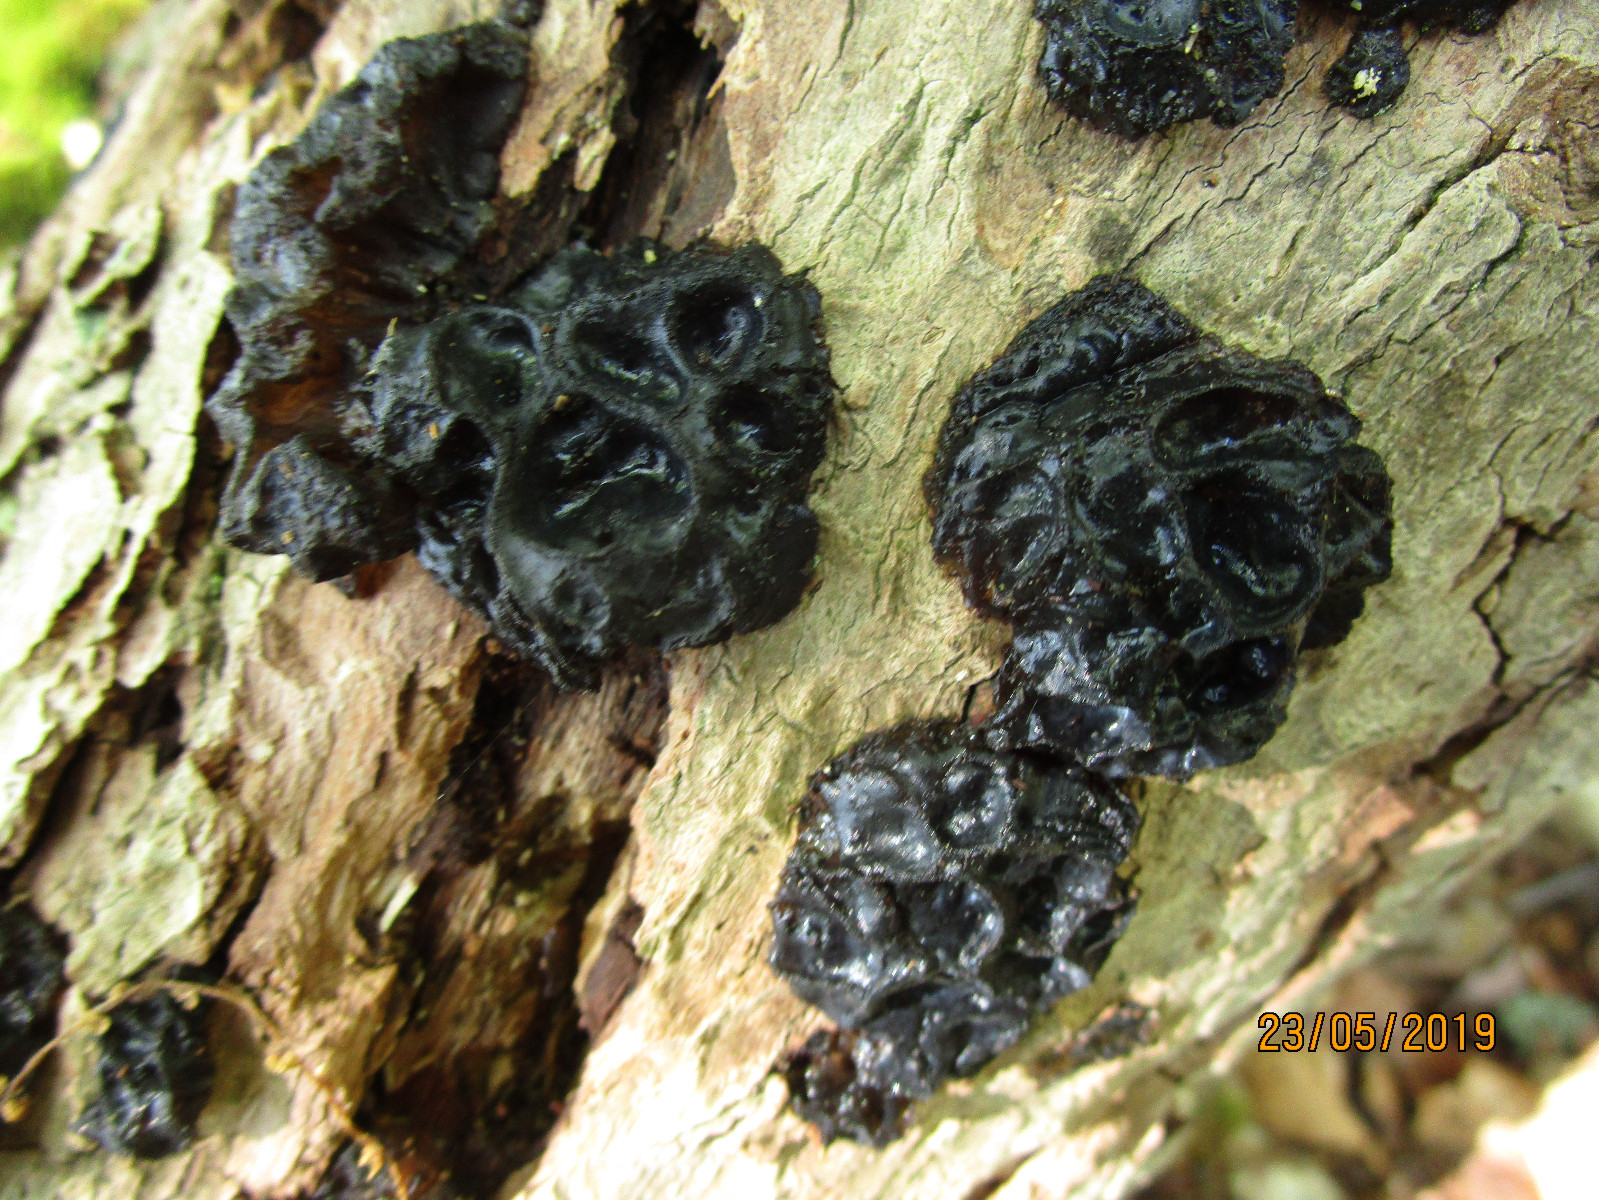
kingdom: Fungi
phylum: Basidiomycota
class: Agaricomycetes
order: Auriculariales
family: Auriculariaceae
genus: Exidia
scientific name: Exidia glandulosa
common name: ege-bævretop
